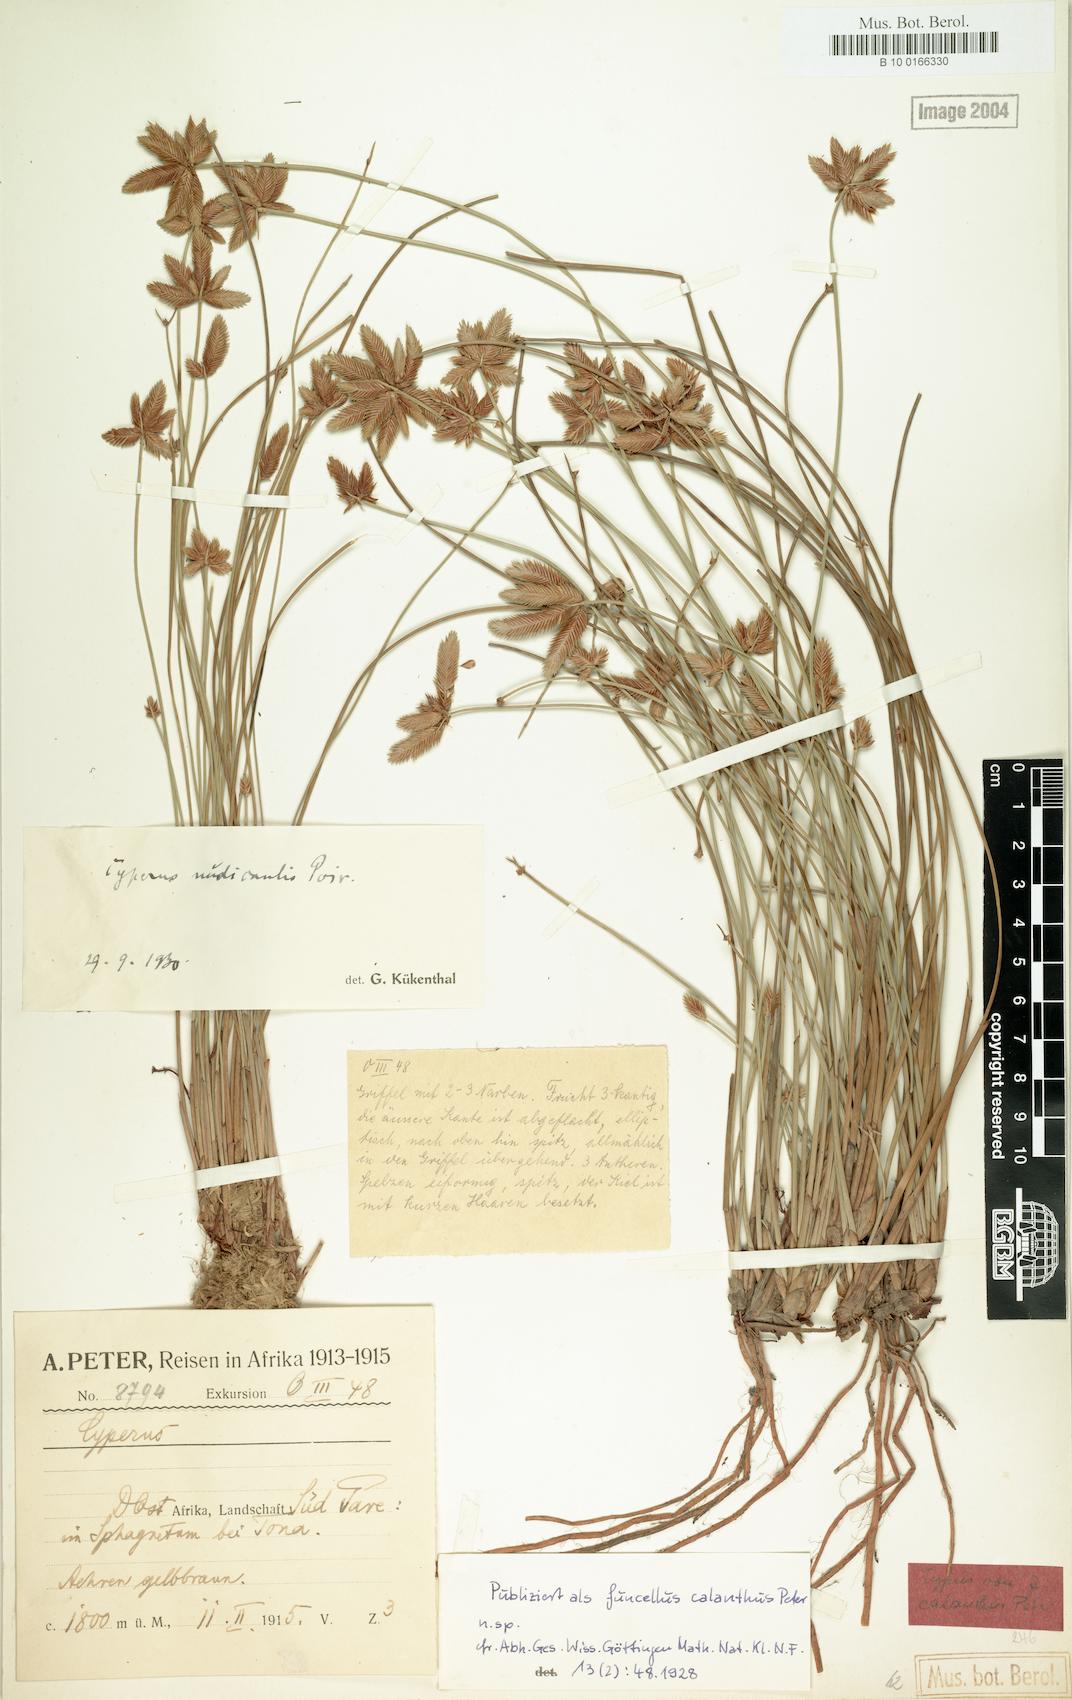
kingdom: Plantae
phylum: Tracheophyta
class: Liliopsida
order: Poales
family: Cyperaceae
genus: Cyperus
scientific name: Cyperus pectinatus
